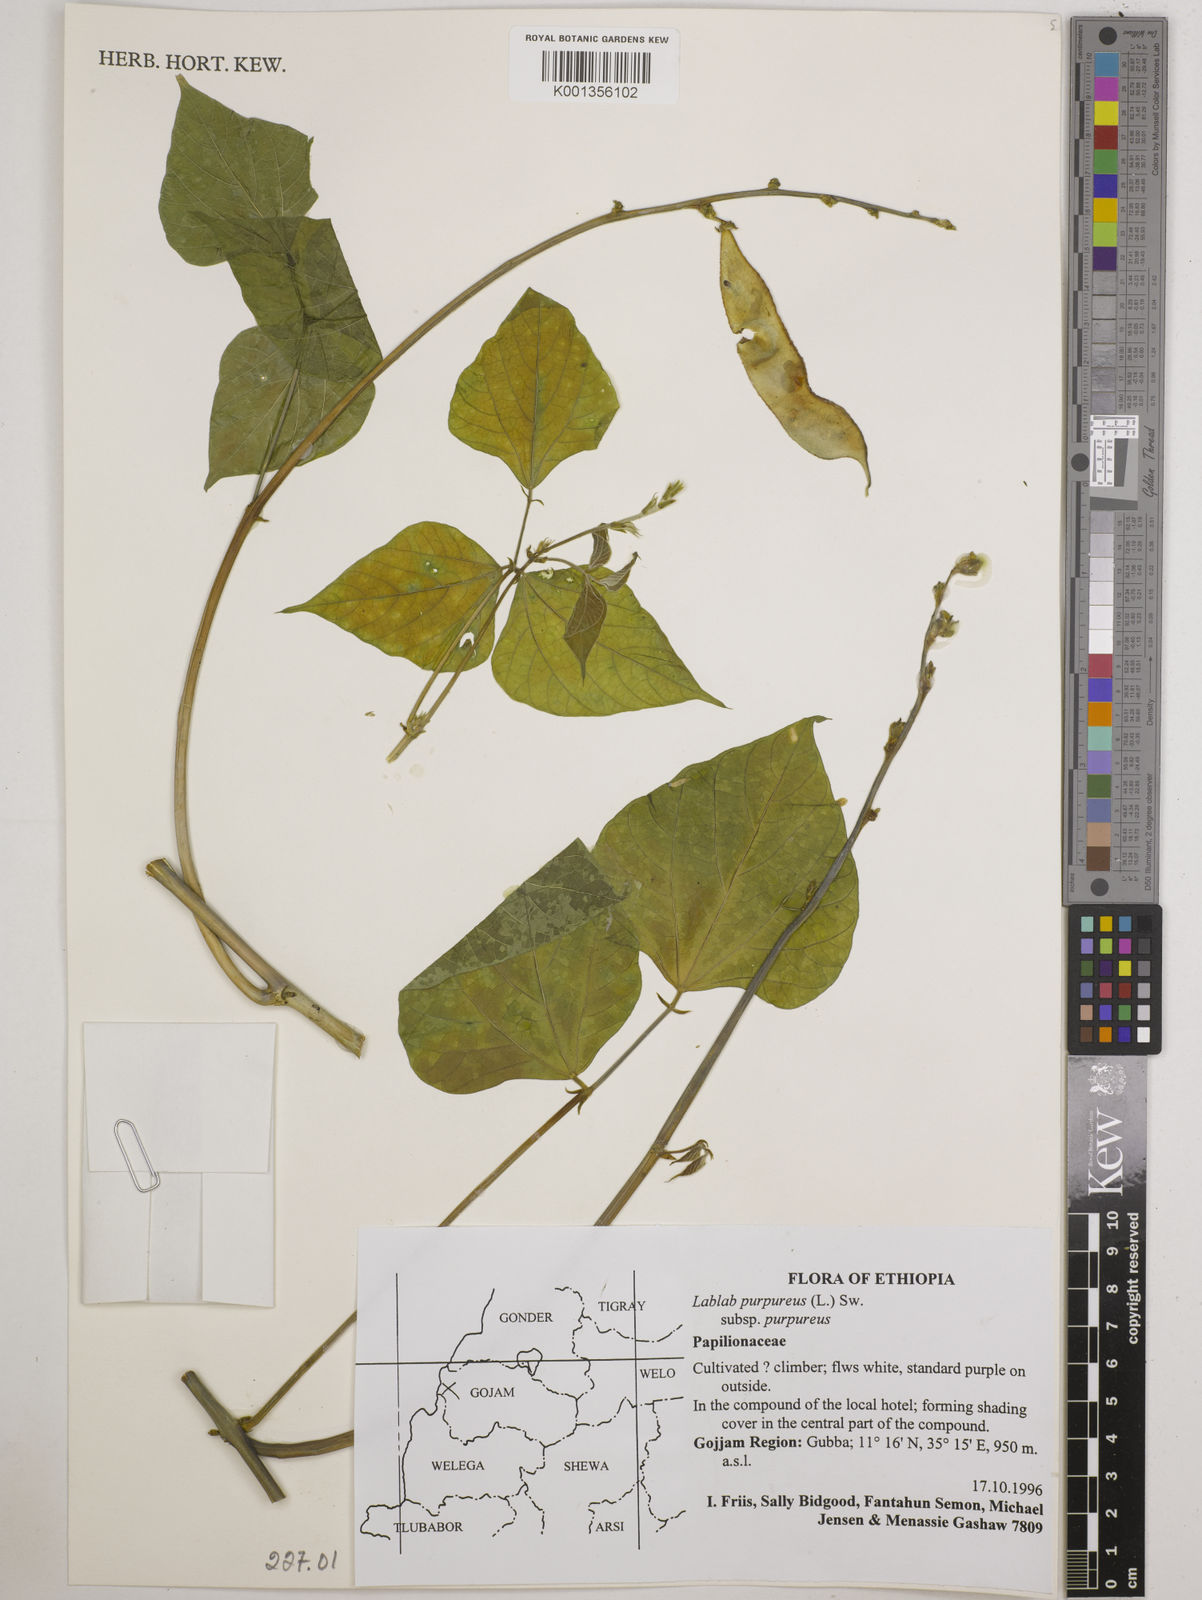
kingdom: Plantae
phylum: Tracheophyta
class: Magnoliopsida
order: Fabales
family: Fabaceae
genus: Lablab
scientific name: Lablab purpureus
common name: Lablab-bean
